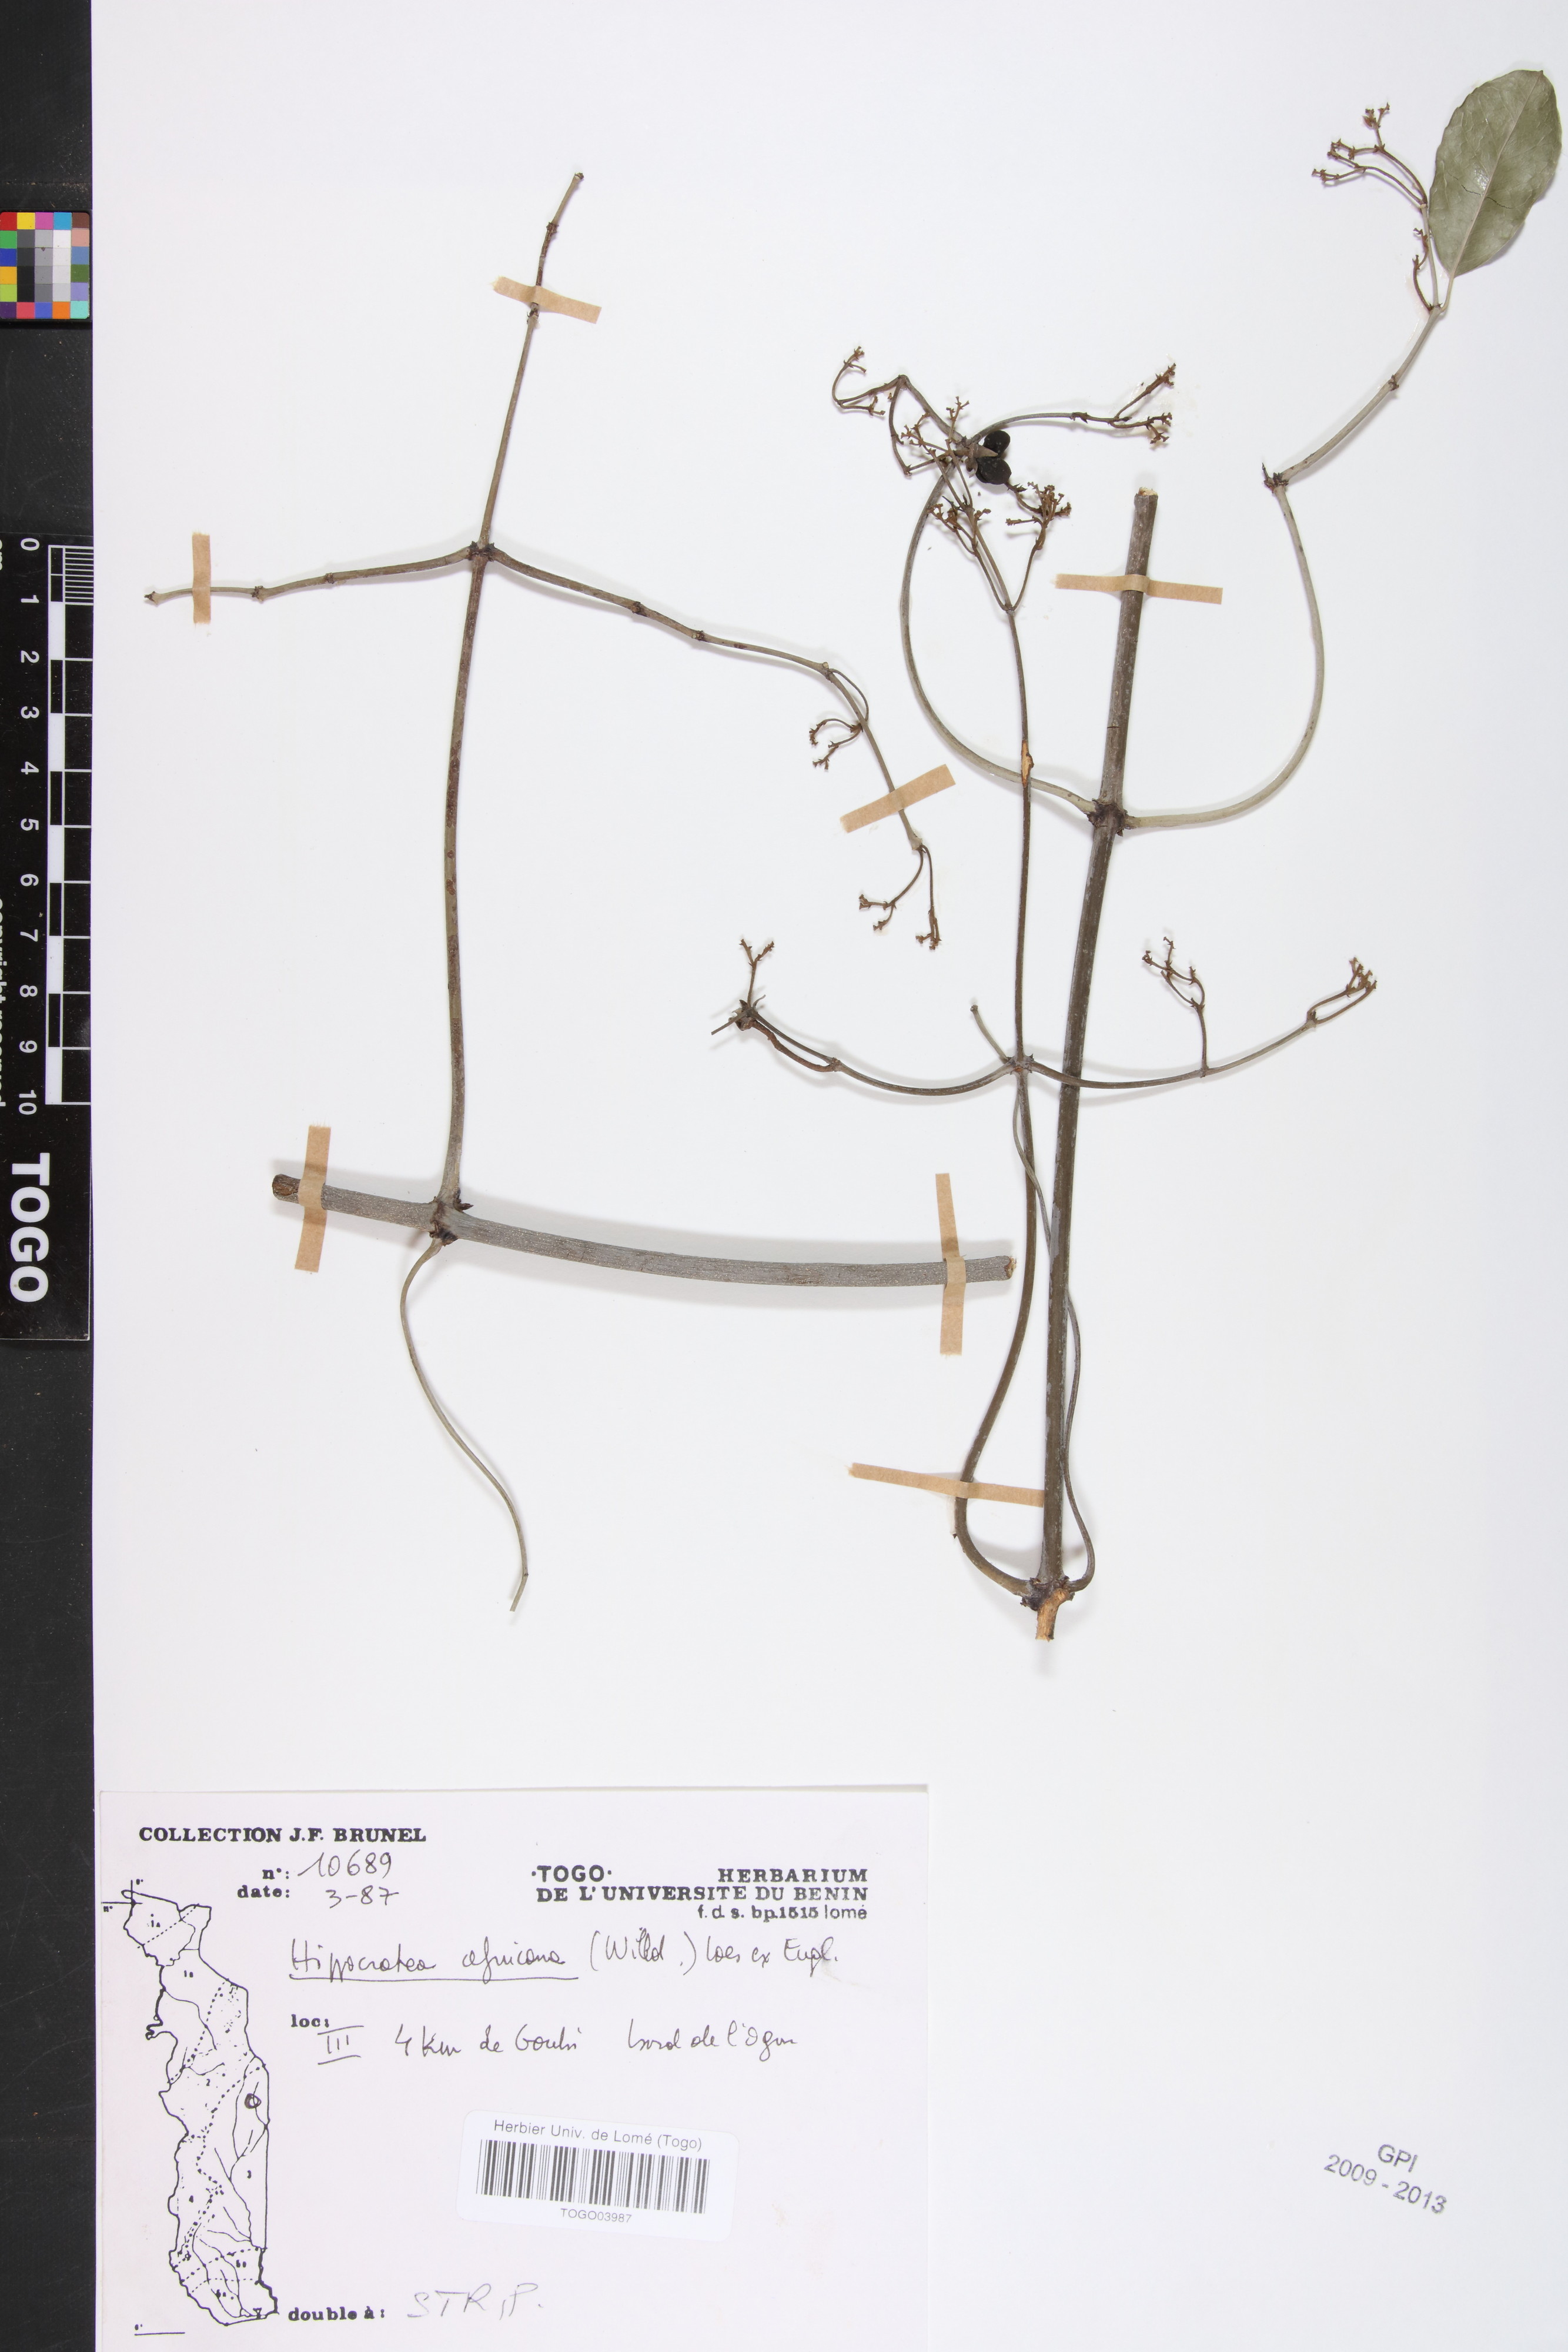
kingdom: Plantae
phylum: Tracheophyta
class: Magnoliopsida
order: Celastrales
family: Celastraceae
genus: Loeseneriella
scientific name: Loeseneriella africana
